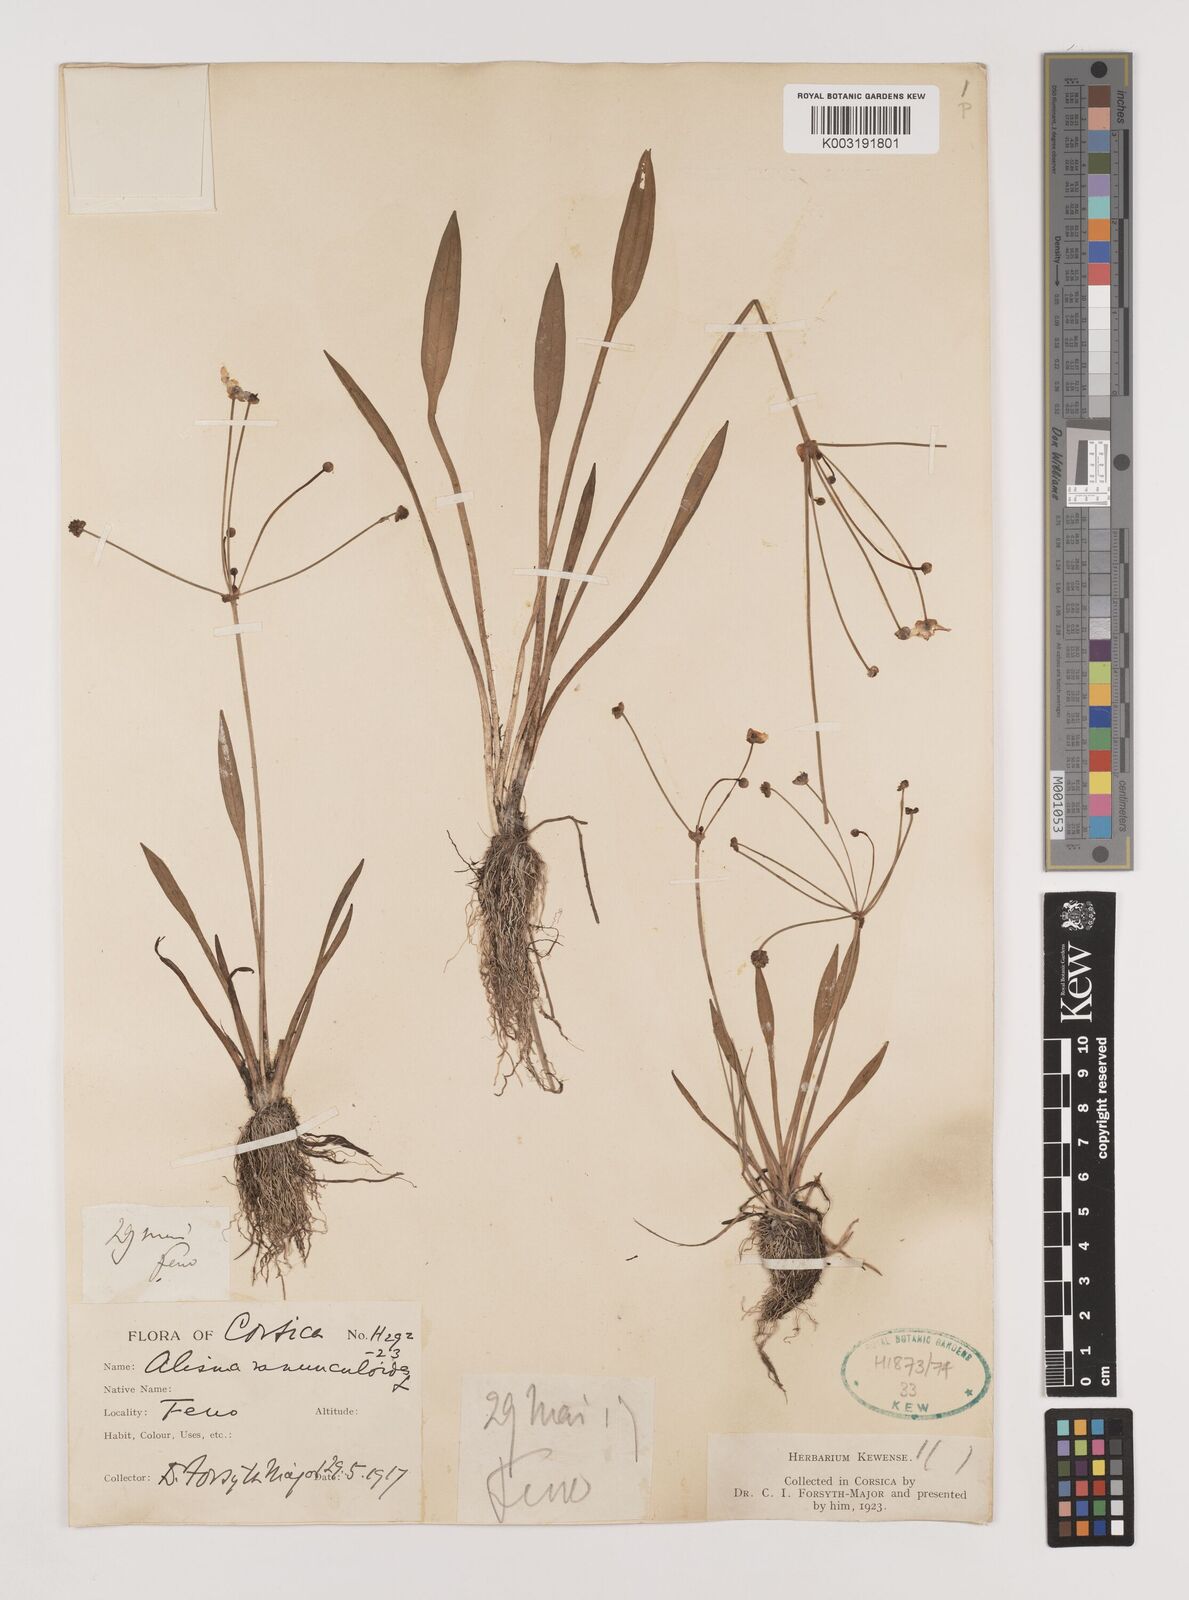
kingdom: Plantae
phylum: Tracheophyta
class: Liliopsida
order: Alismatales
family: Alismataceae
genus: Baldellia
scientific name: Baldellia ranunculoides
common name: Lesser water-plantain
